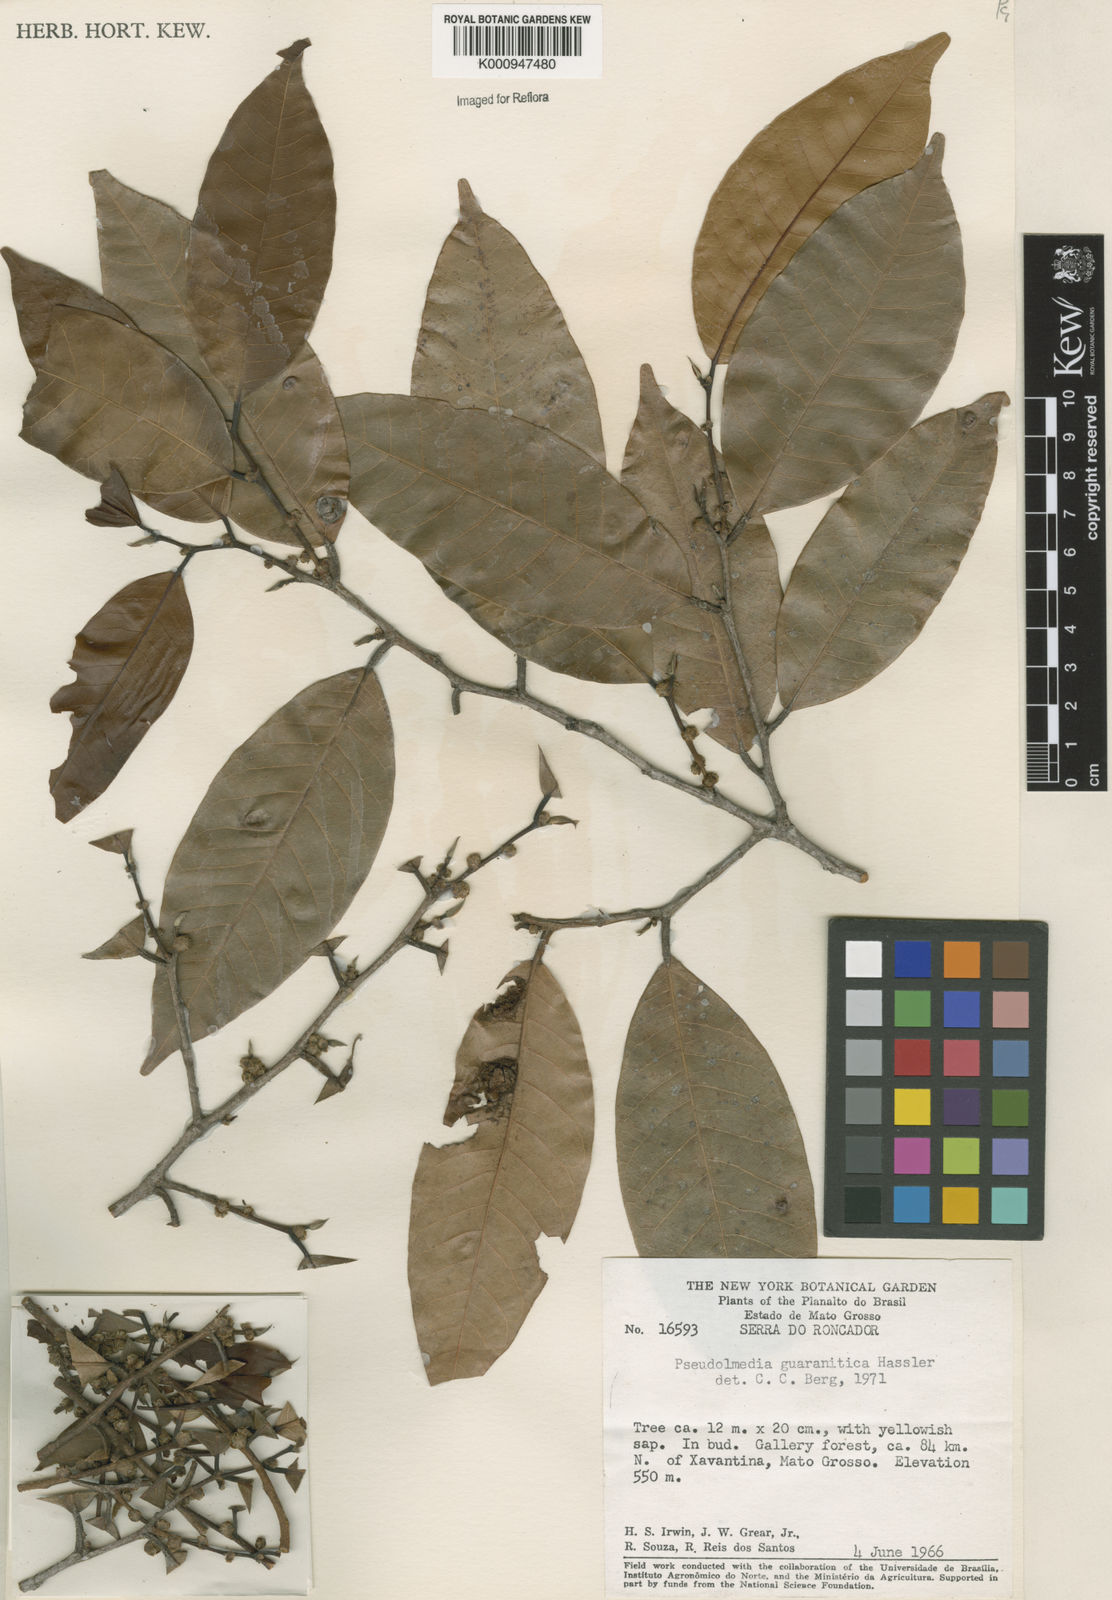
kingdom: Plantae
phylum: Tracheophyta
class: Magnoliopsida
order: Rosales
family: Moraceae
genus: Pseudolmedia
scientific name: Pseudolmedia laevigata
